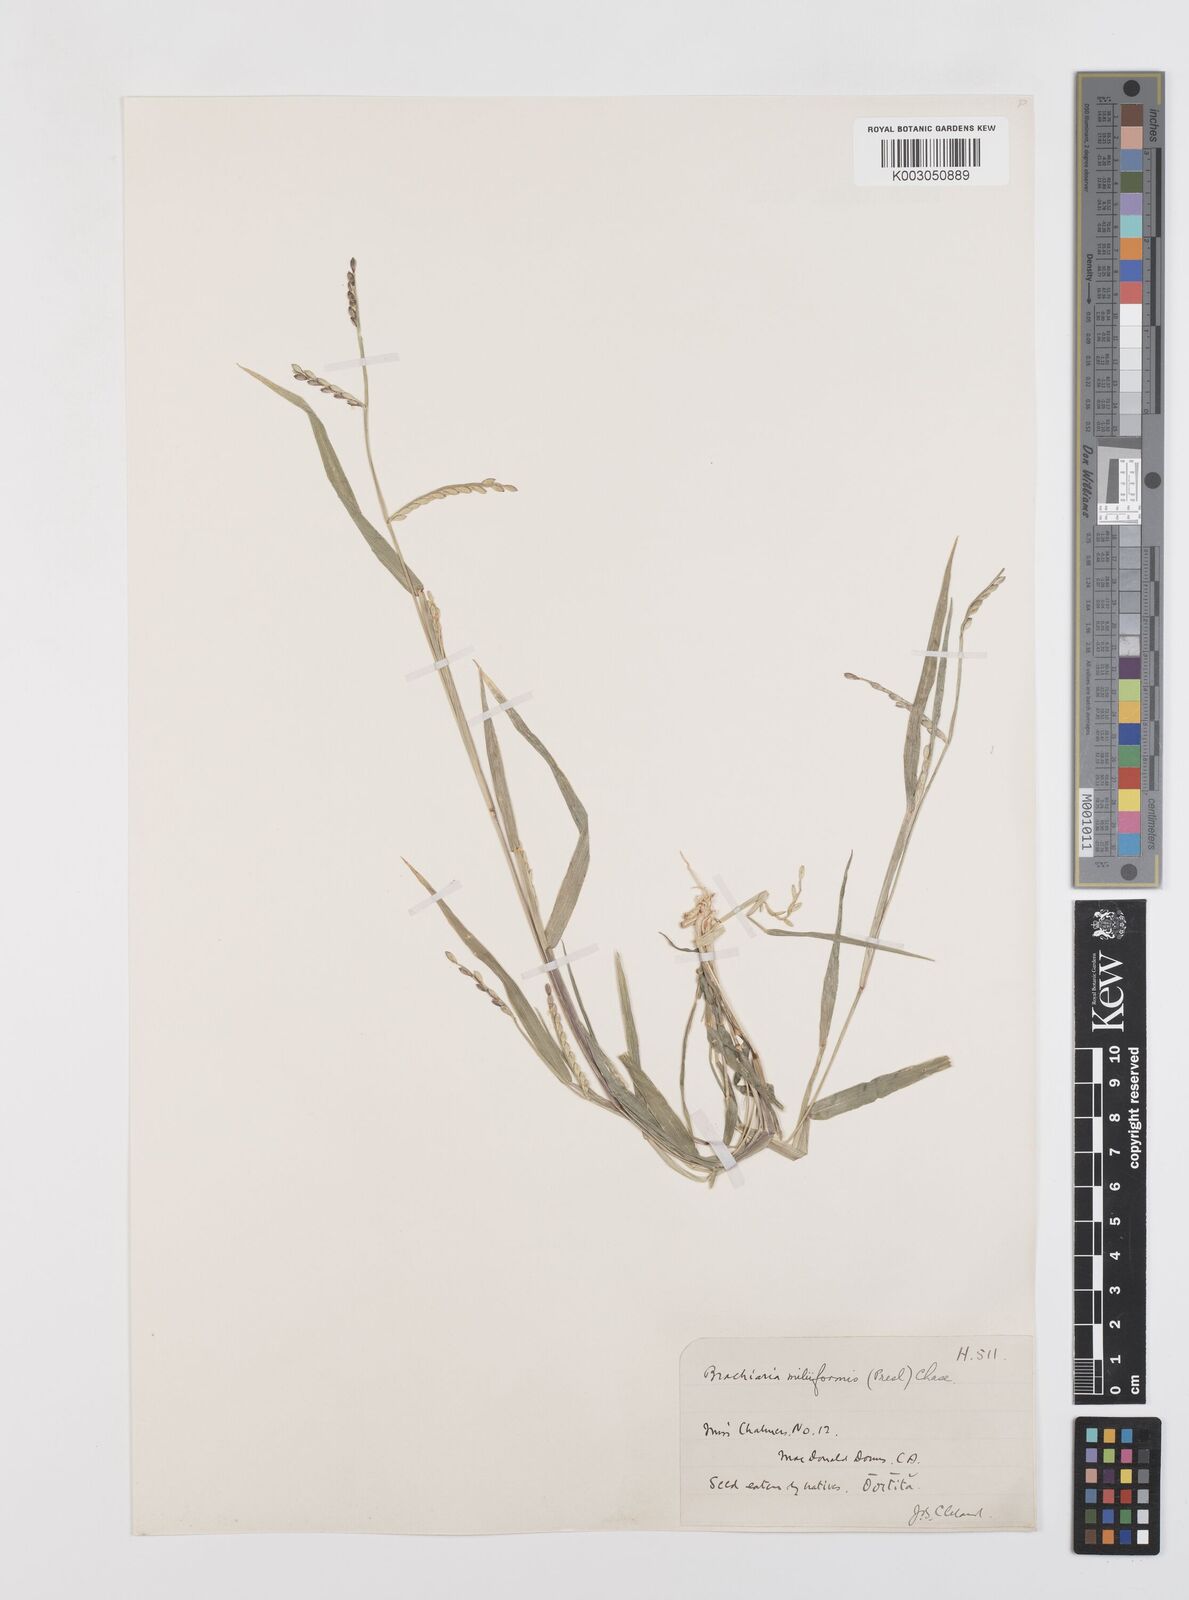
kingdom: Plantae
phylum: Tracheophyta
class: Liliopsida
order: Poales
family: Poaceae
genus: Urochloa
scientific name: Urochloa subquadripara
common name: Armgrass millet
